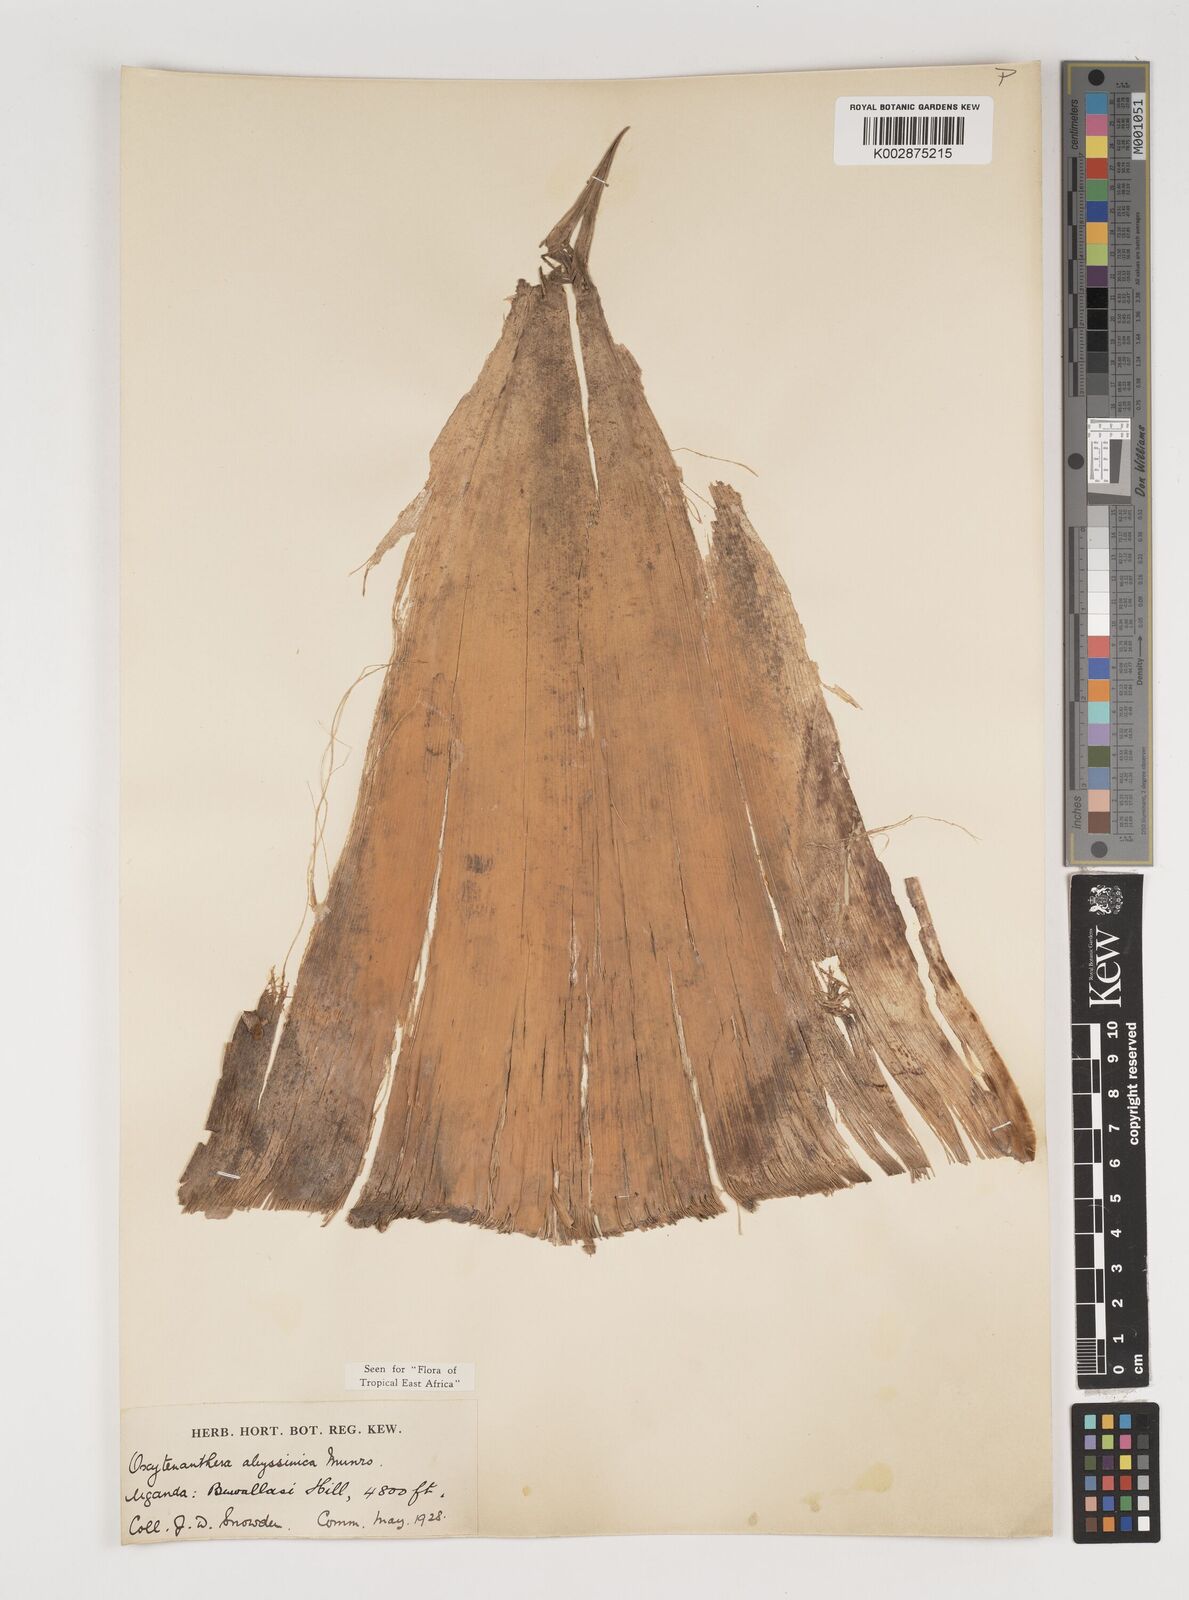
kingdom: Plantae
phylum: Tracheophyta
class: Liliopsida
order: Poales
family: Poaceae
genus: Oxytenanthera
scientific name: Oxytenanthera abyssinica
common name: Wine bamboo
